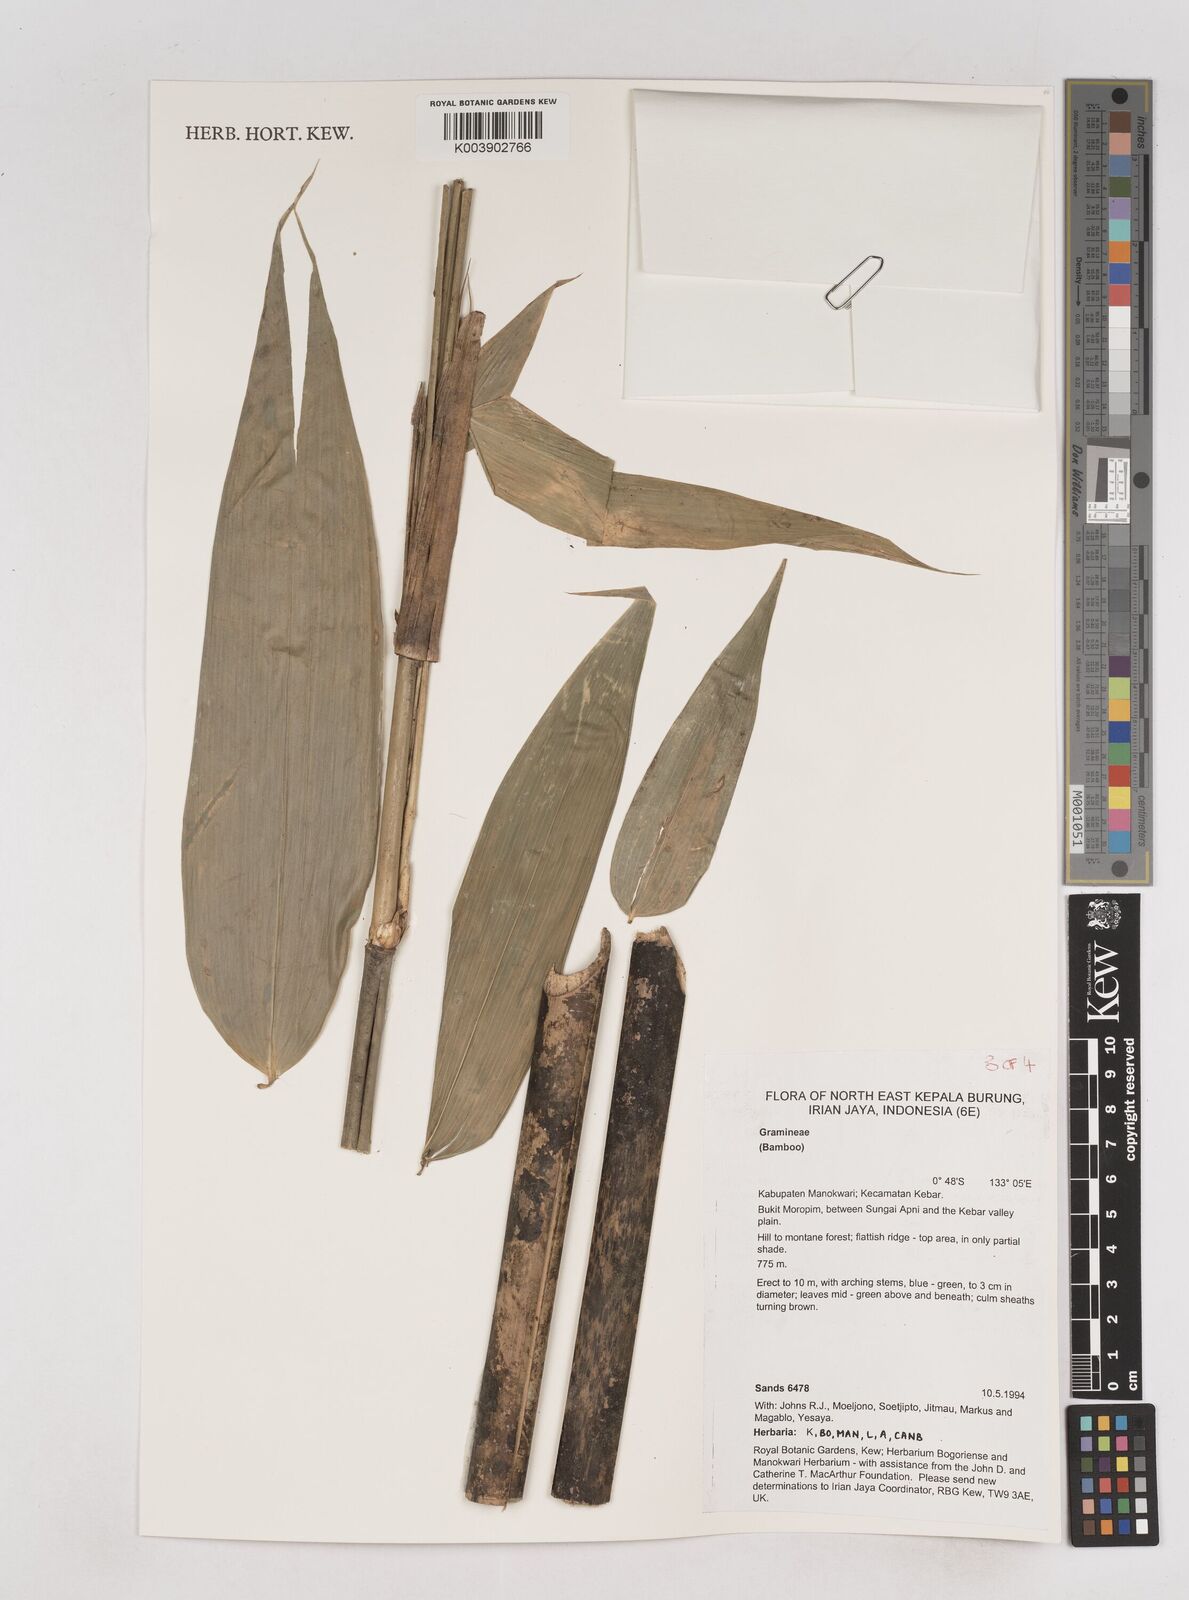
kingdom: Plantae
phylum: Tracheophyta
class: Liliopsida
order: Poales
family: Poaceae
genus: Schizostachyum
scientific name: Schizostachyum
